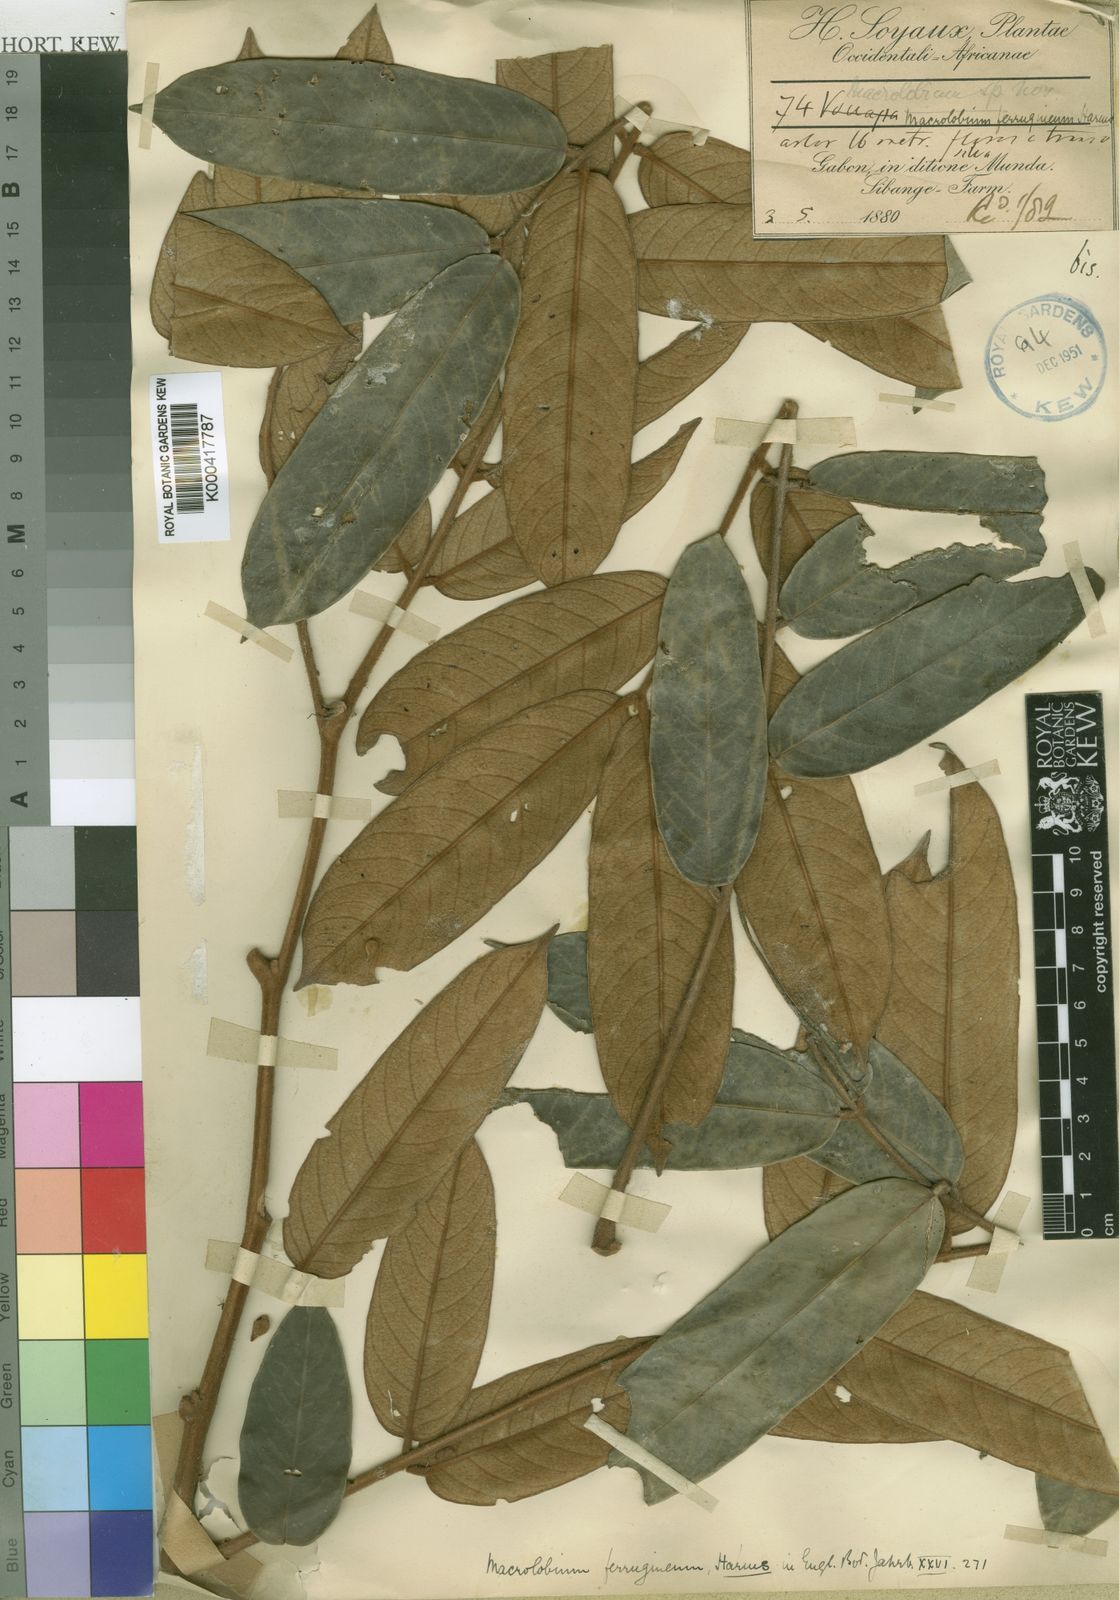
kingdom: Plantae
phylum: Tracheophyta
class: Magnoliopsida
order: Fabales
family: Fabaceae
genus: Anthonotha
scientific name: Anthonotha
